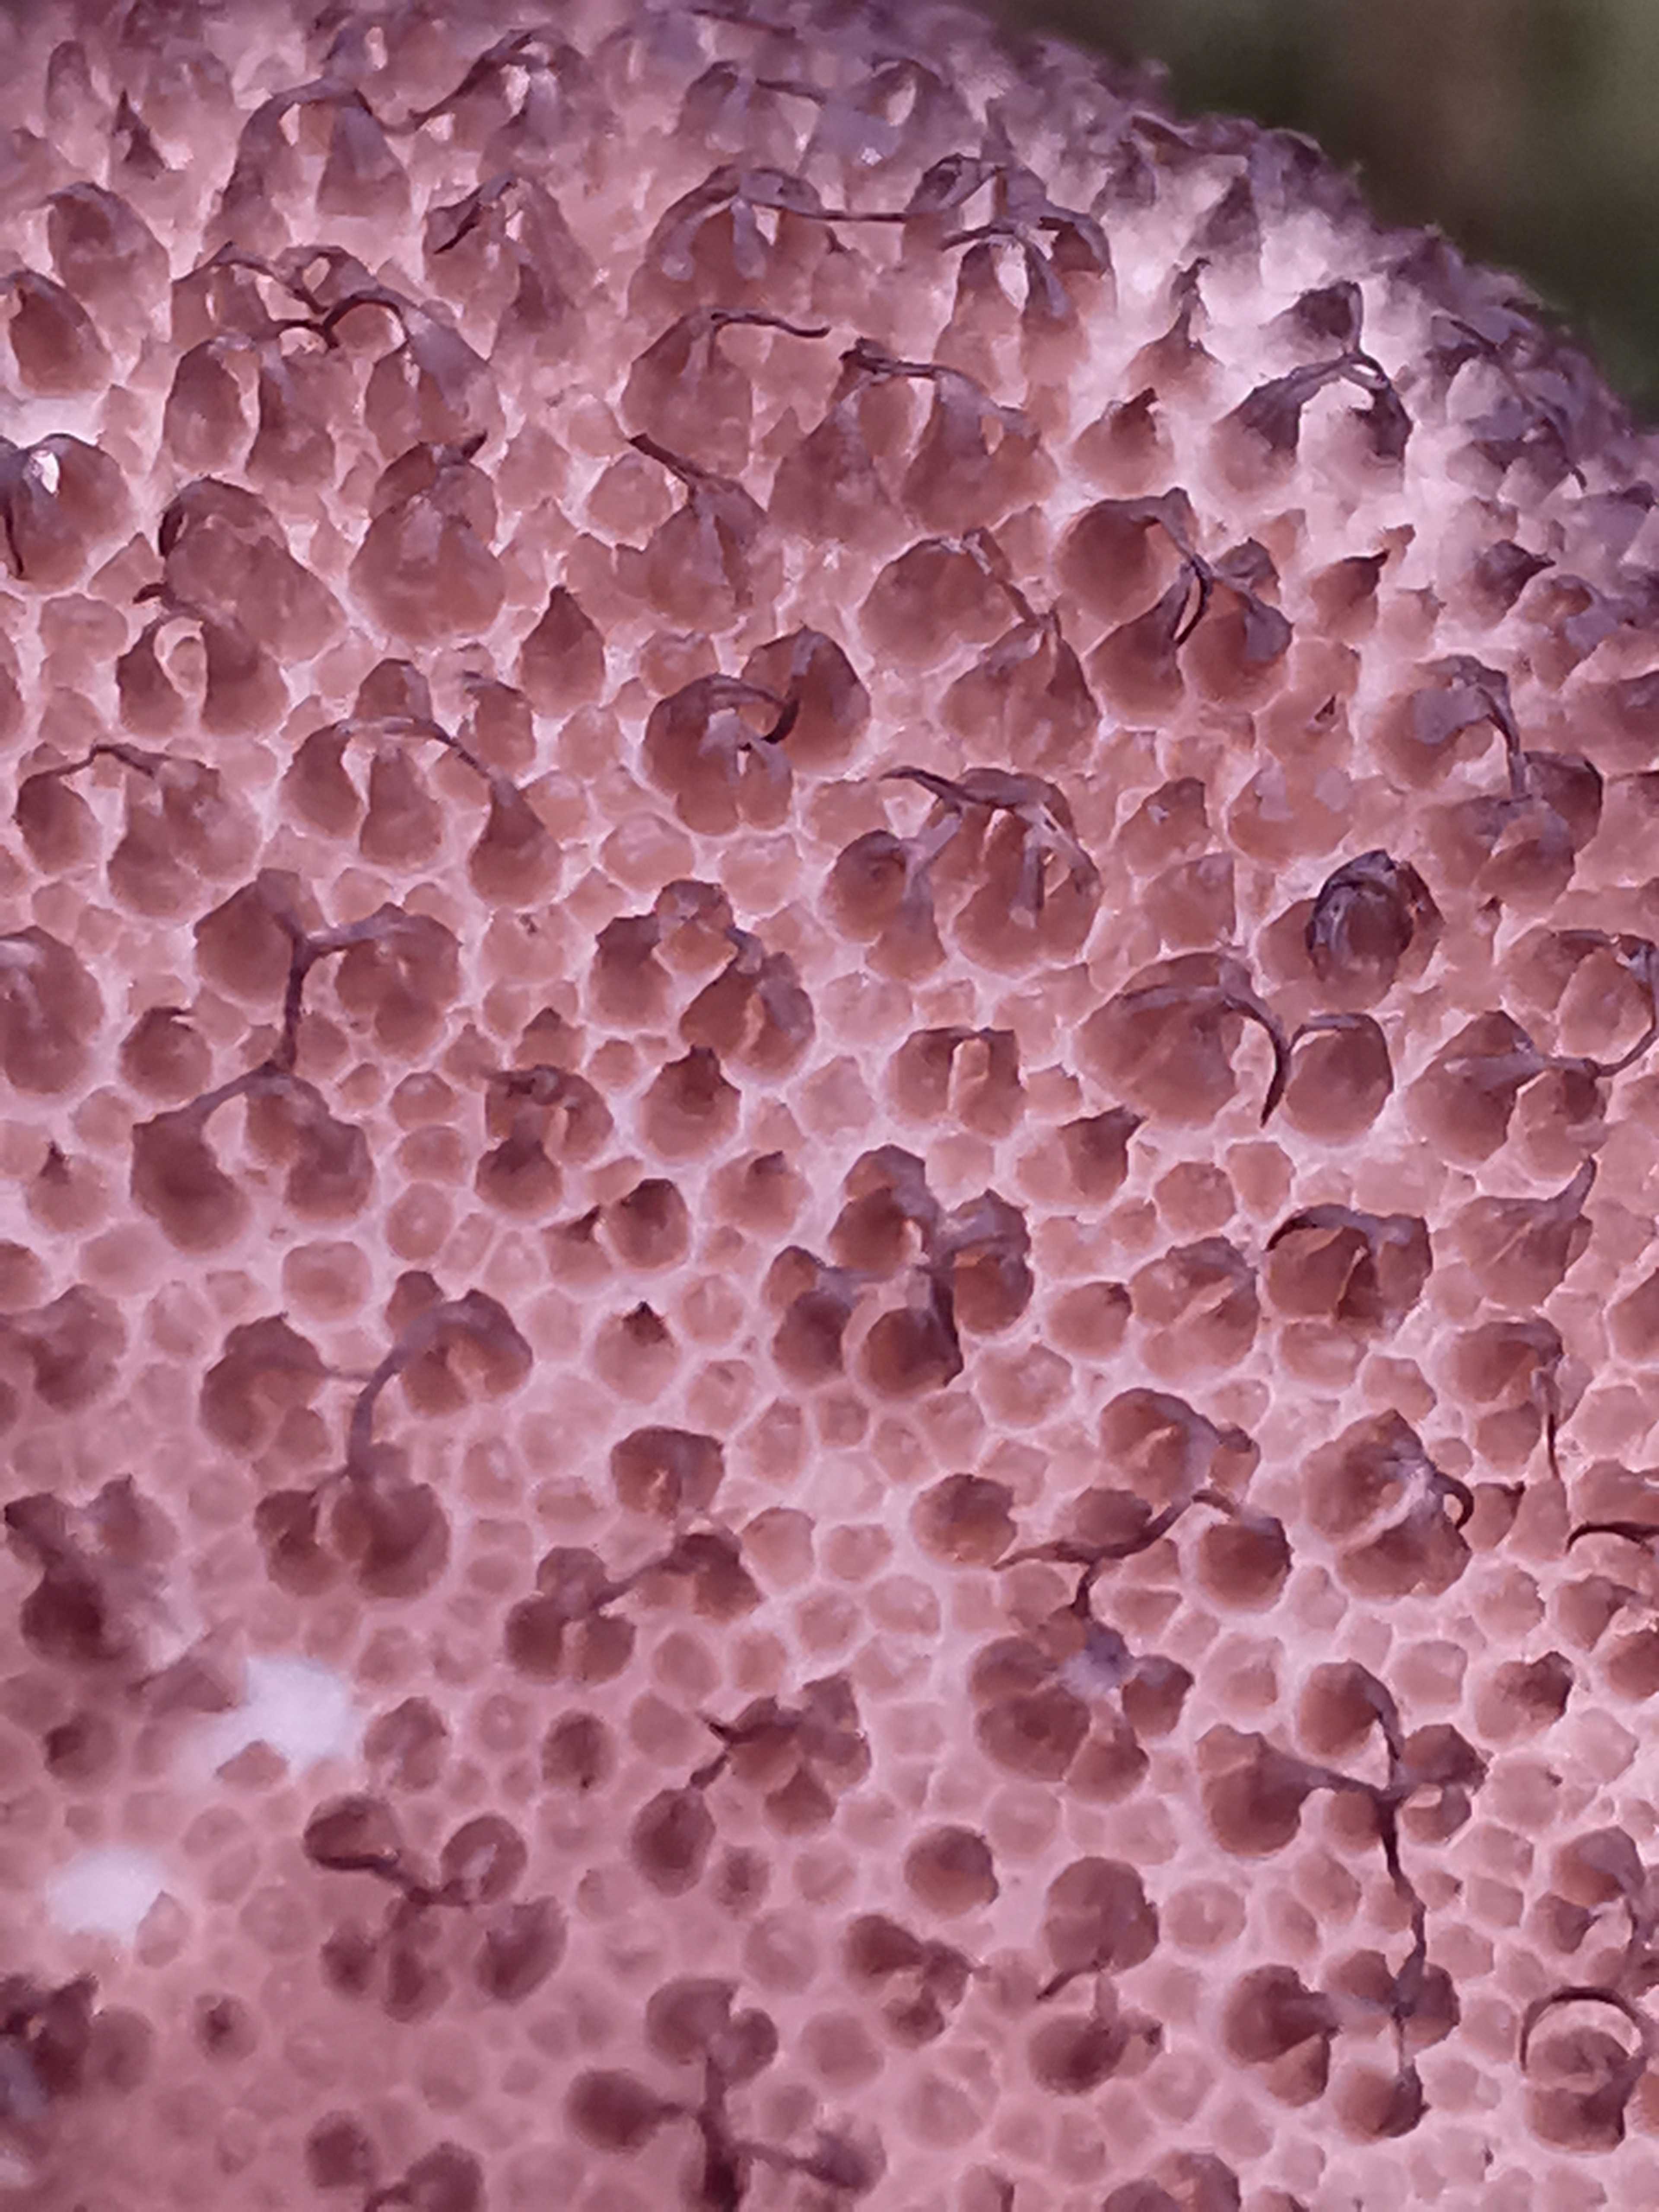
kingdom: Fungi
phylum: Basidiomycota
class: Agaricomycetes
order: Agaricales
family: Lycoperdaceae
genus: Lycoperdon
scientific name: Lycoperdon nigrescens
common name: sortagtig støvbold
